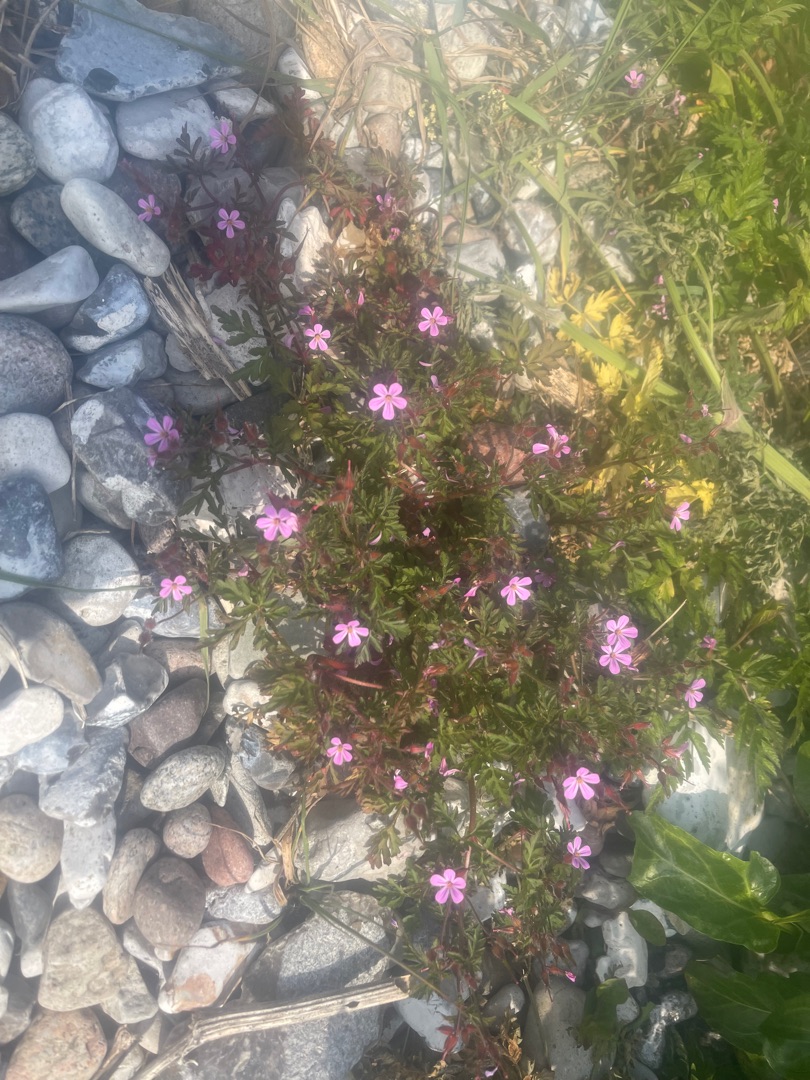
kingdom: Plantae
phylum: Tracheophyta
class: Magnoliopsida
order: Geraniales
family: Geraniaceae
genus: Geranium
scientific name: Geranium robertianum
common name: Stinkende storkenæb
